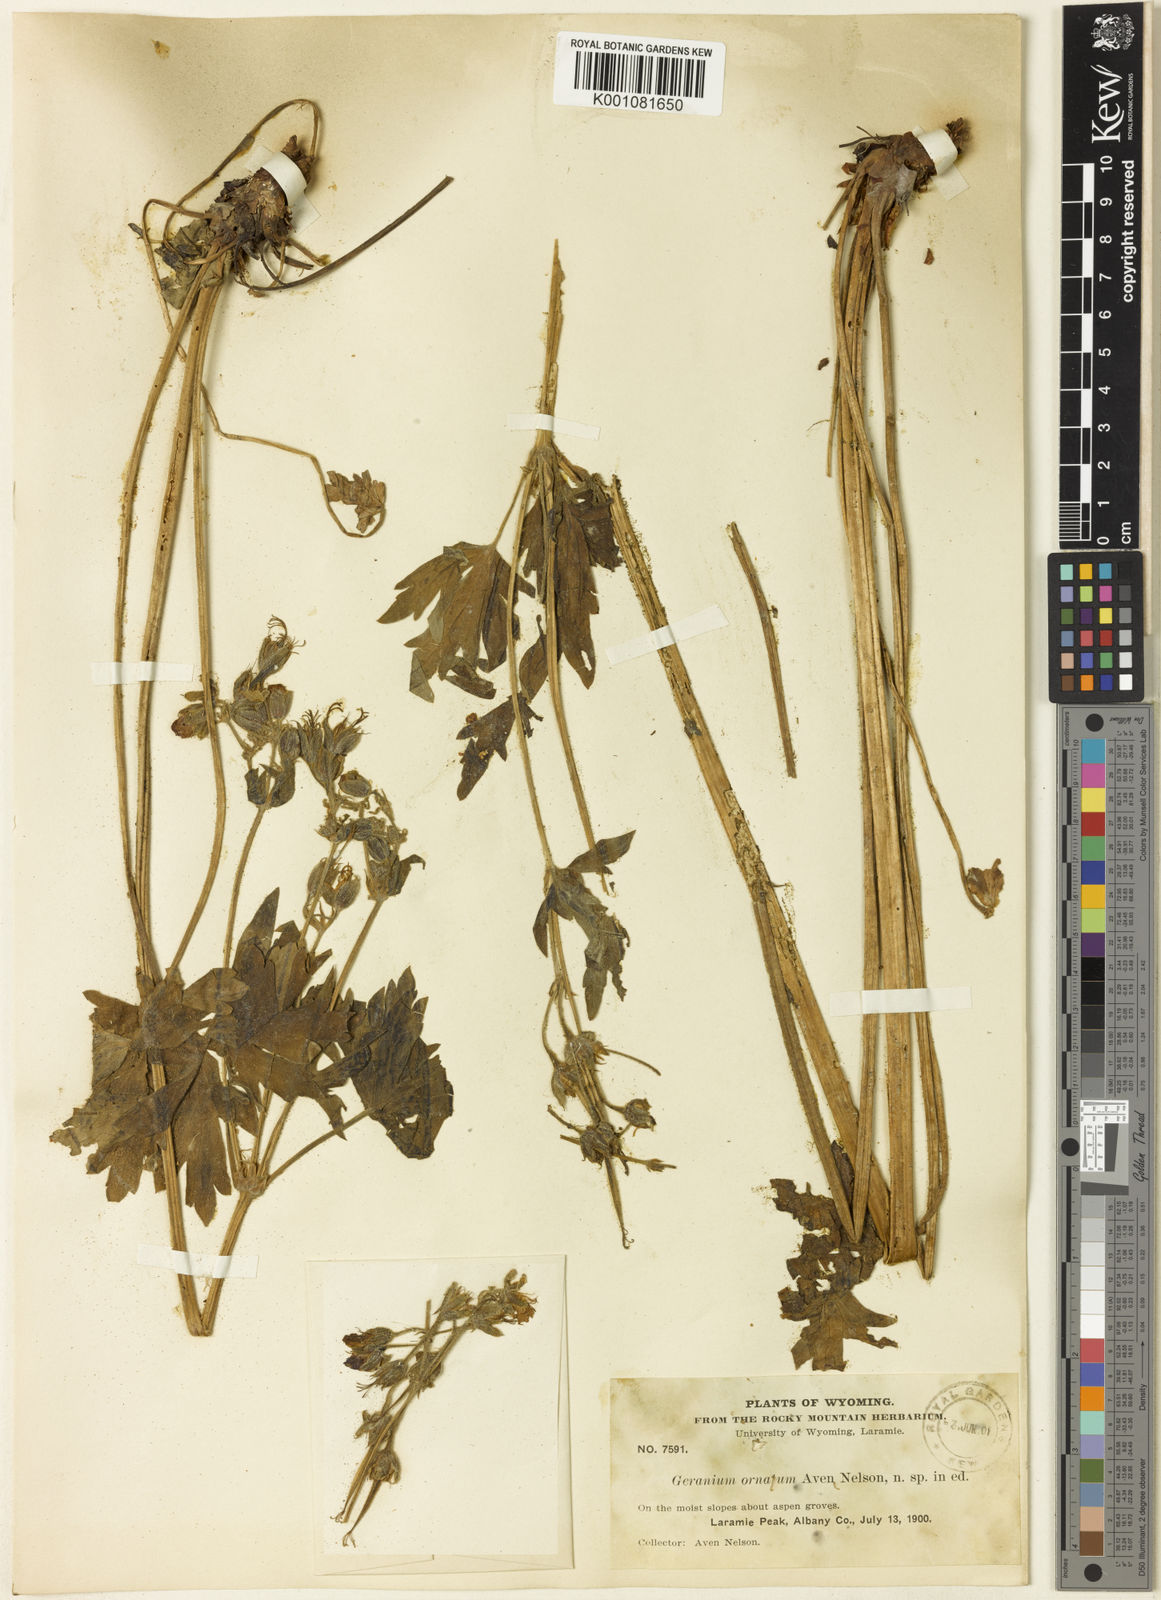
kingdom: Plantae
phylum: Tracheophyta
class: Magnoliopsida
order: Geraniales
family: Geraniaceae
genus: Geranium
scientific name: Geranium
